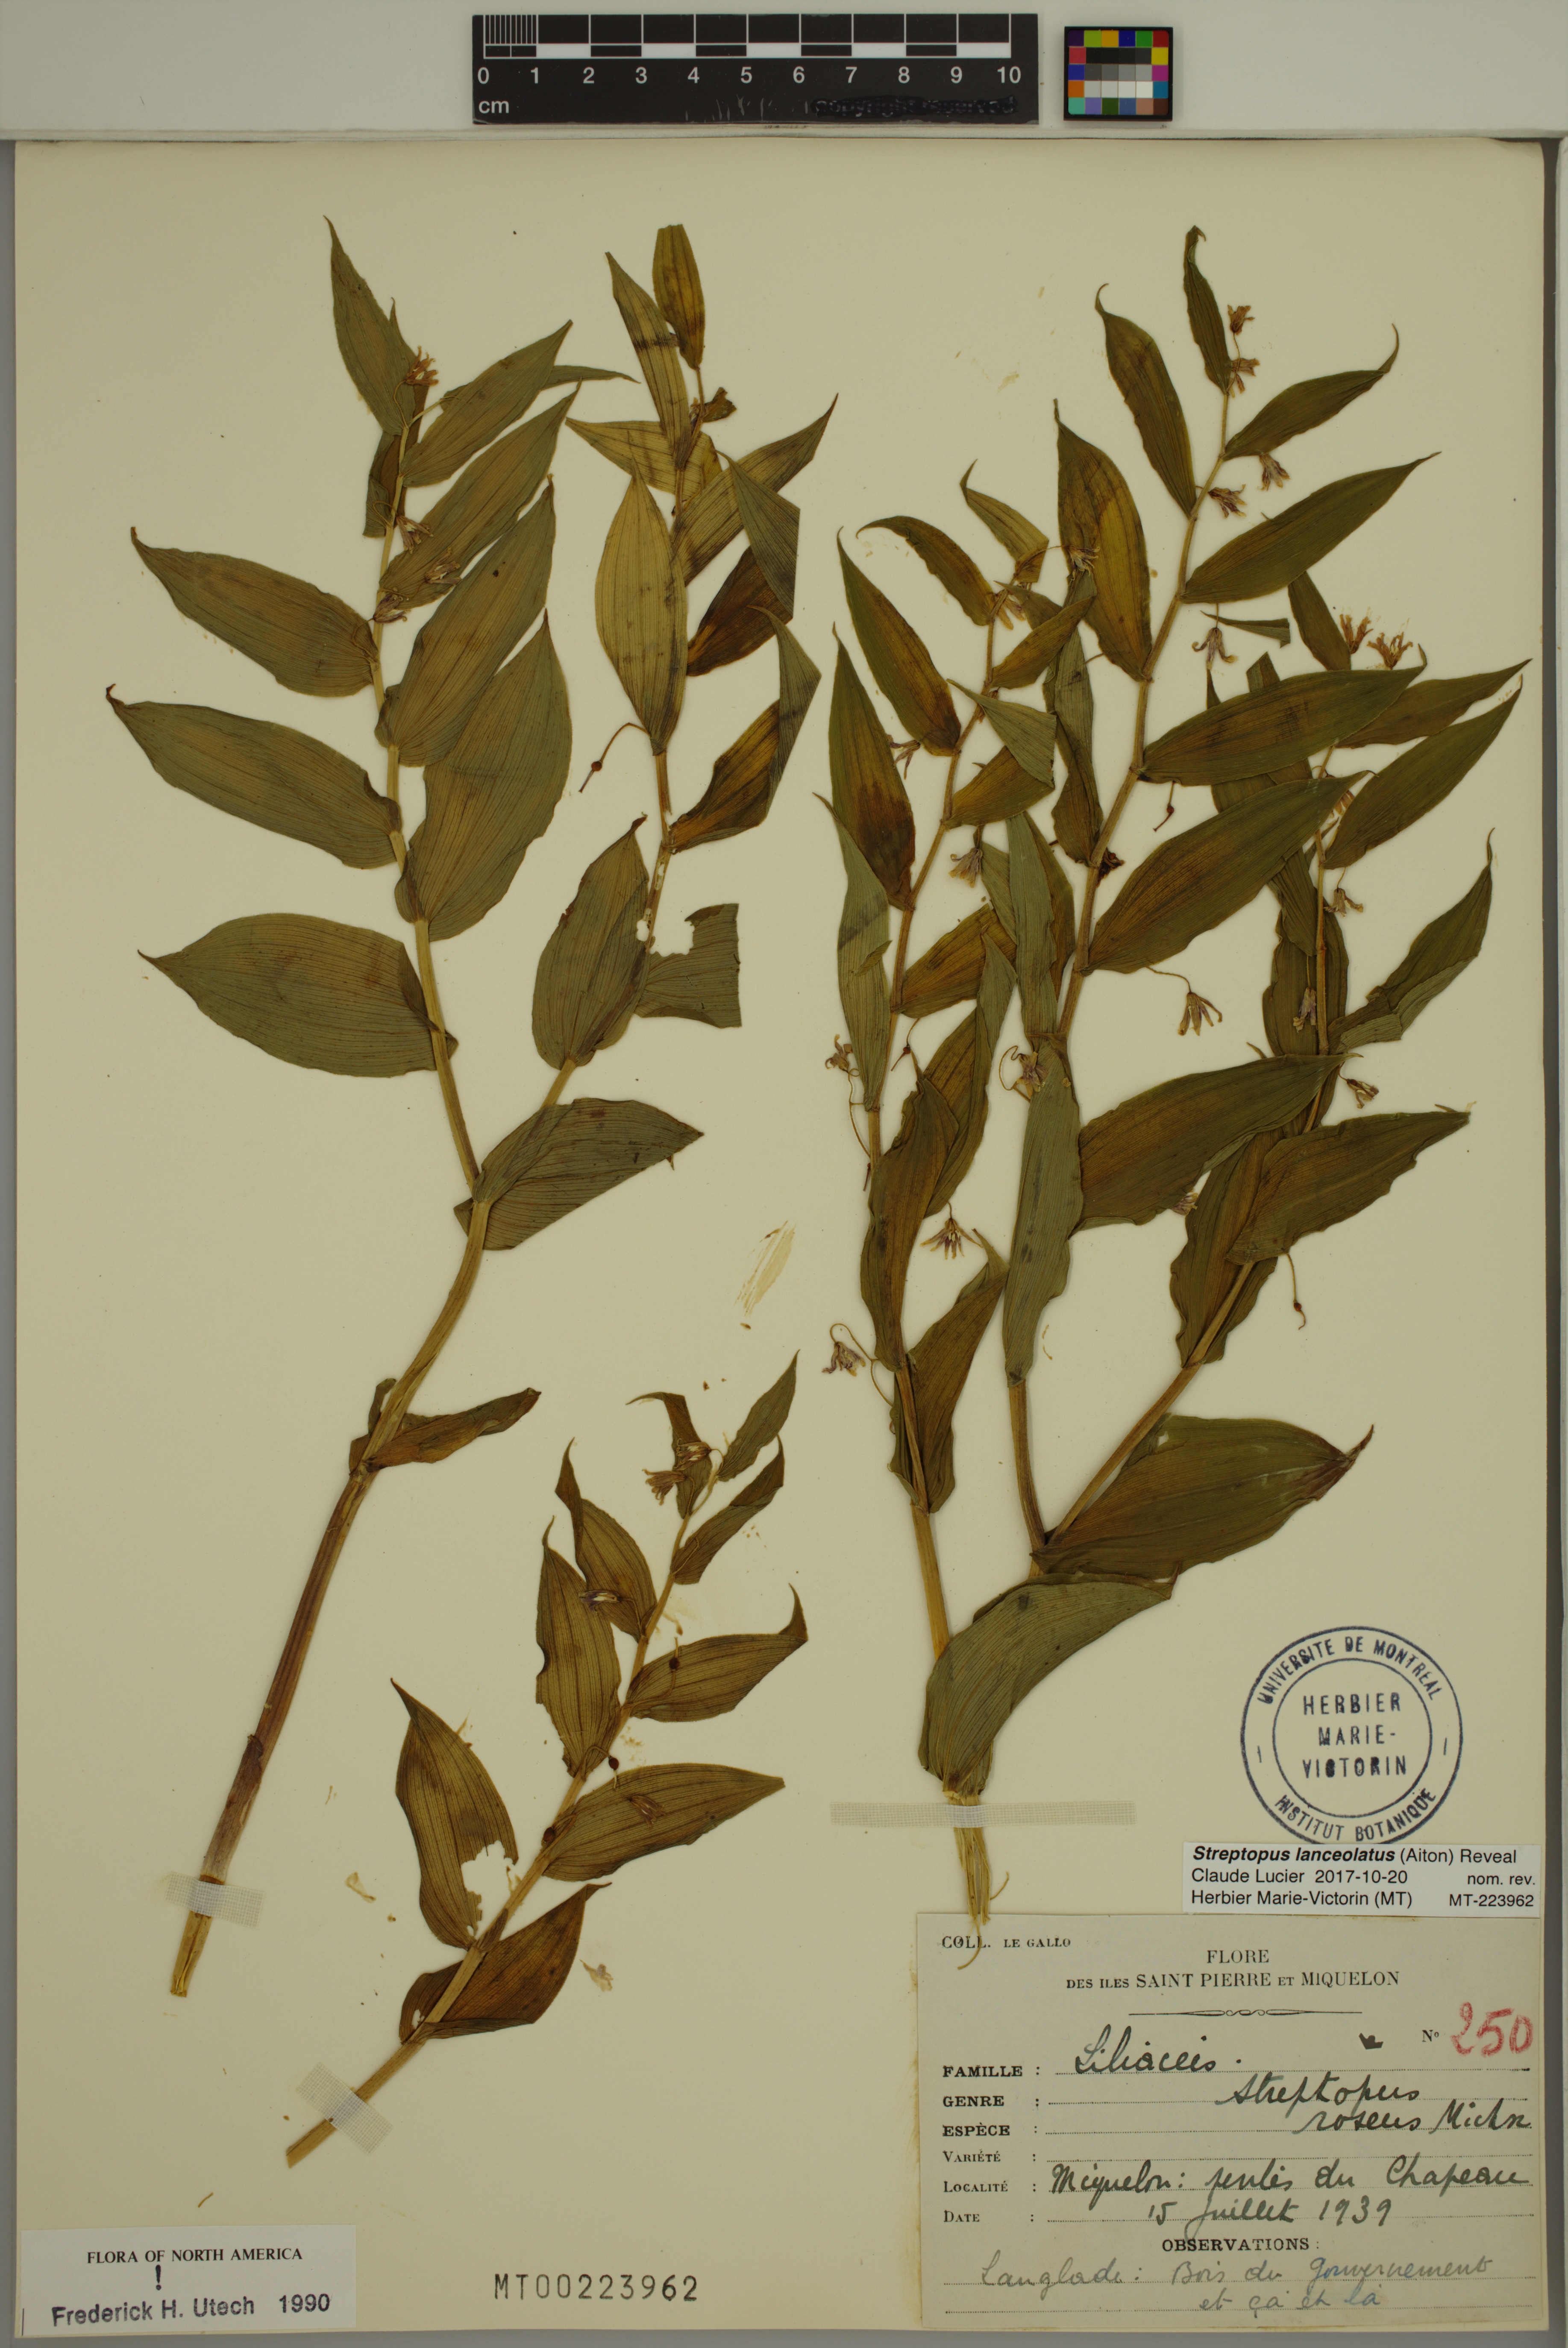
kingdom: Plantae
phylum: Tracheophyta
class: Liliopsida
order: Liliales
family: Liliaceae
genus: Streptopus
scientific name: Streptopus lanceolatus
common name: Rose mandarin
